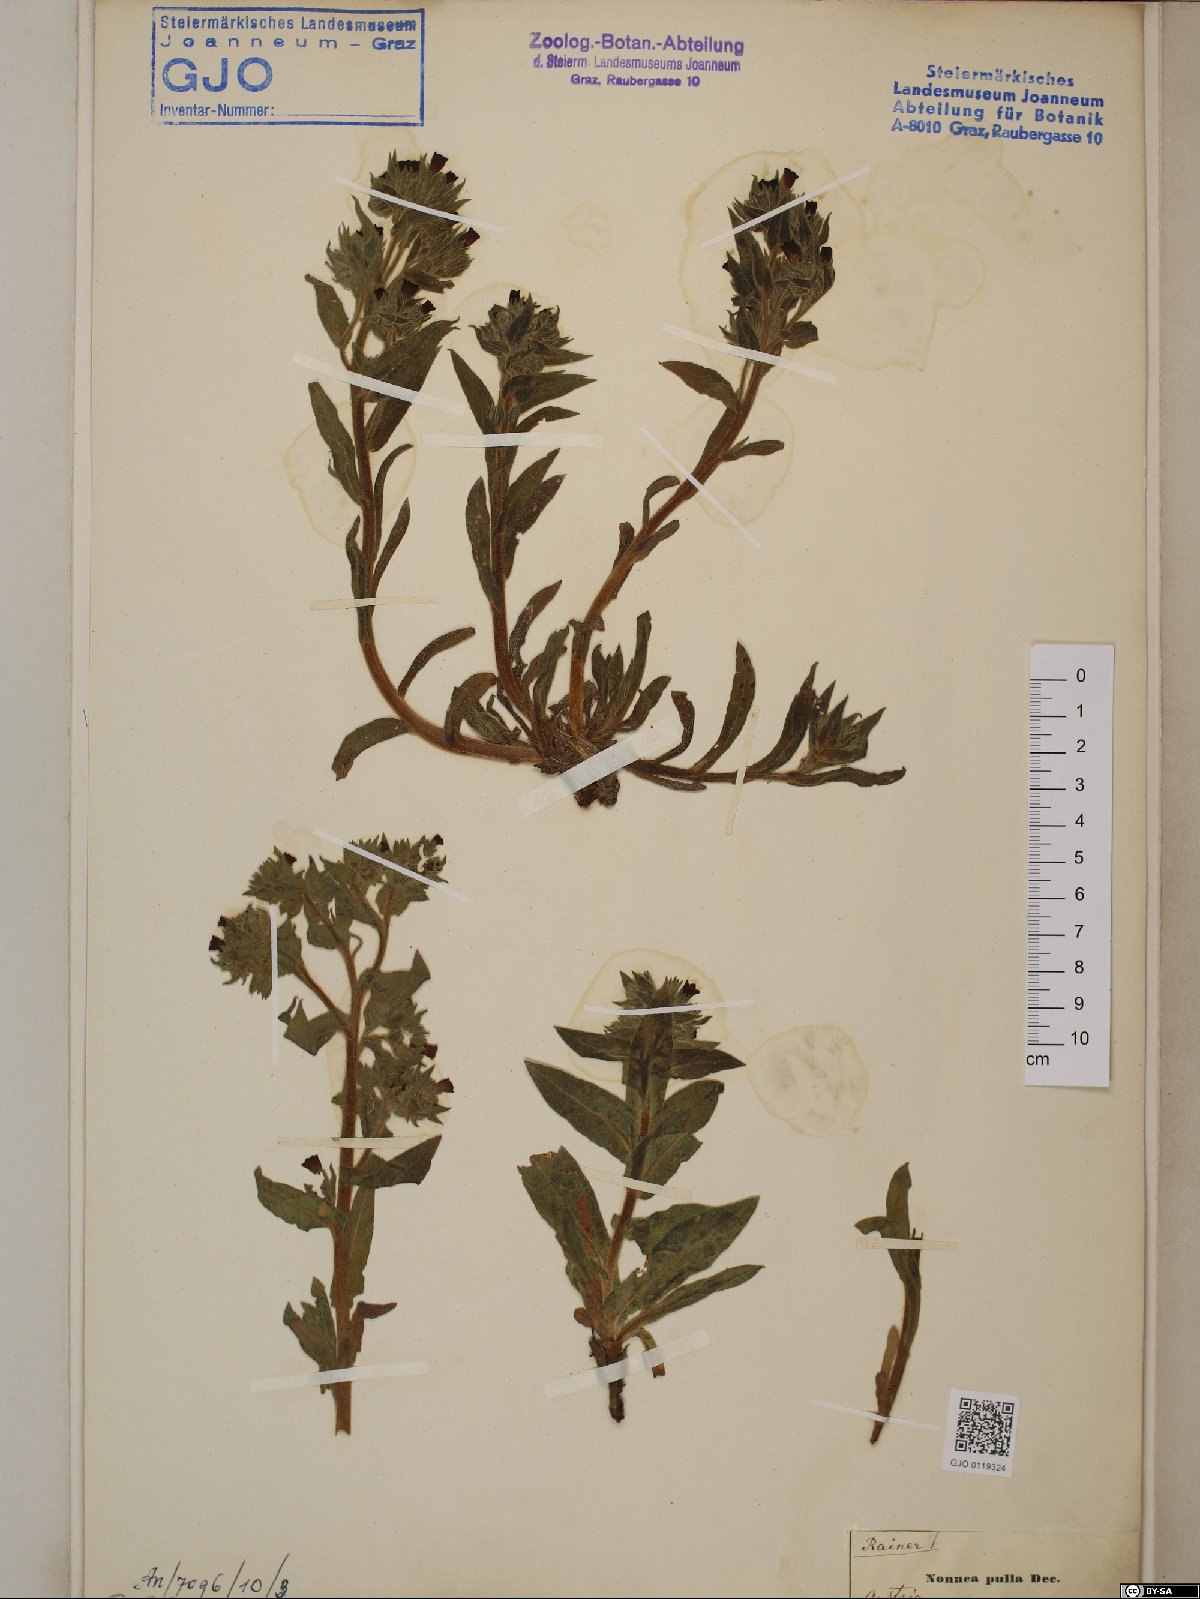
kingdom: Plantae
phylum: Tracheophyta
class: Magnoliopsida
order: Boraginales
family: Boraginaceae
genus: Nonea
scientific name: Nonea pulla
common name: Brown nonea
